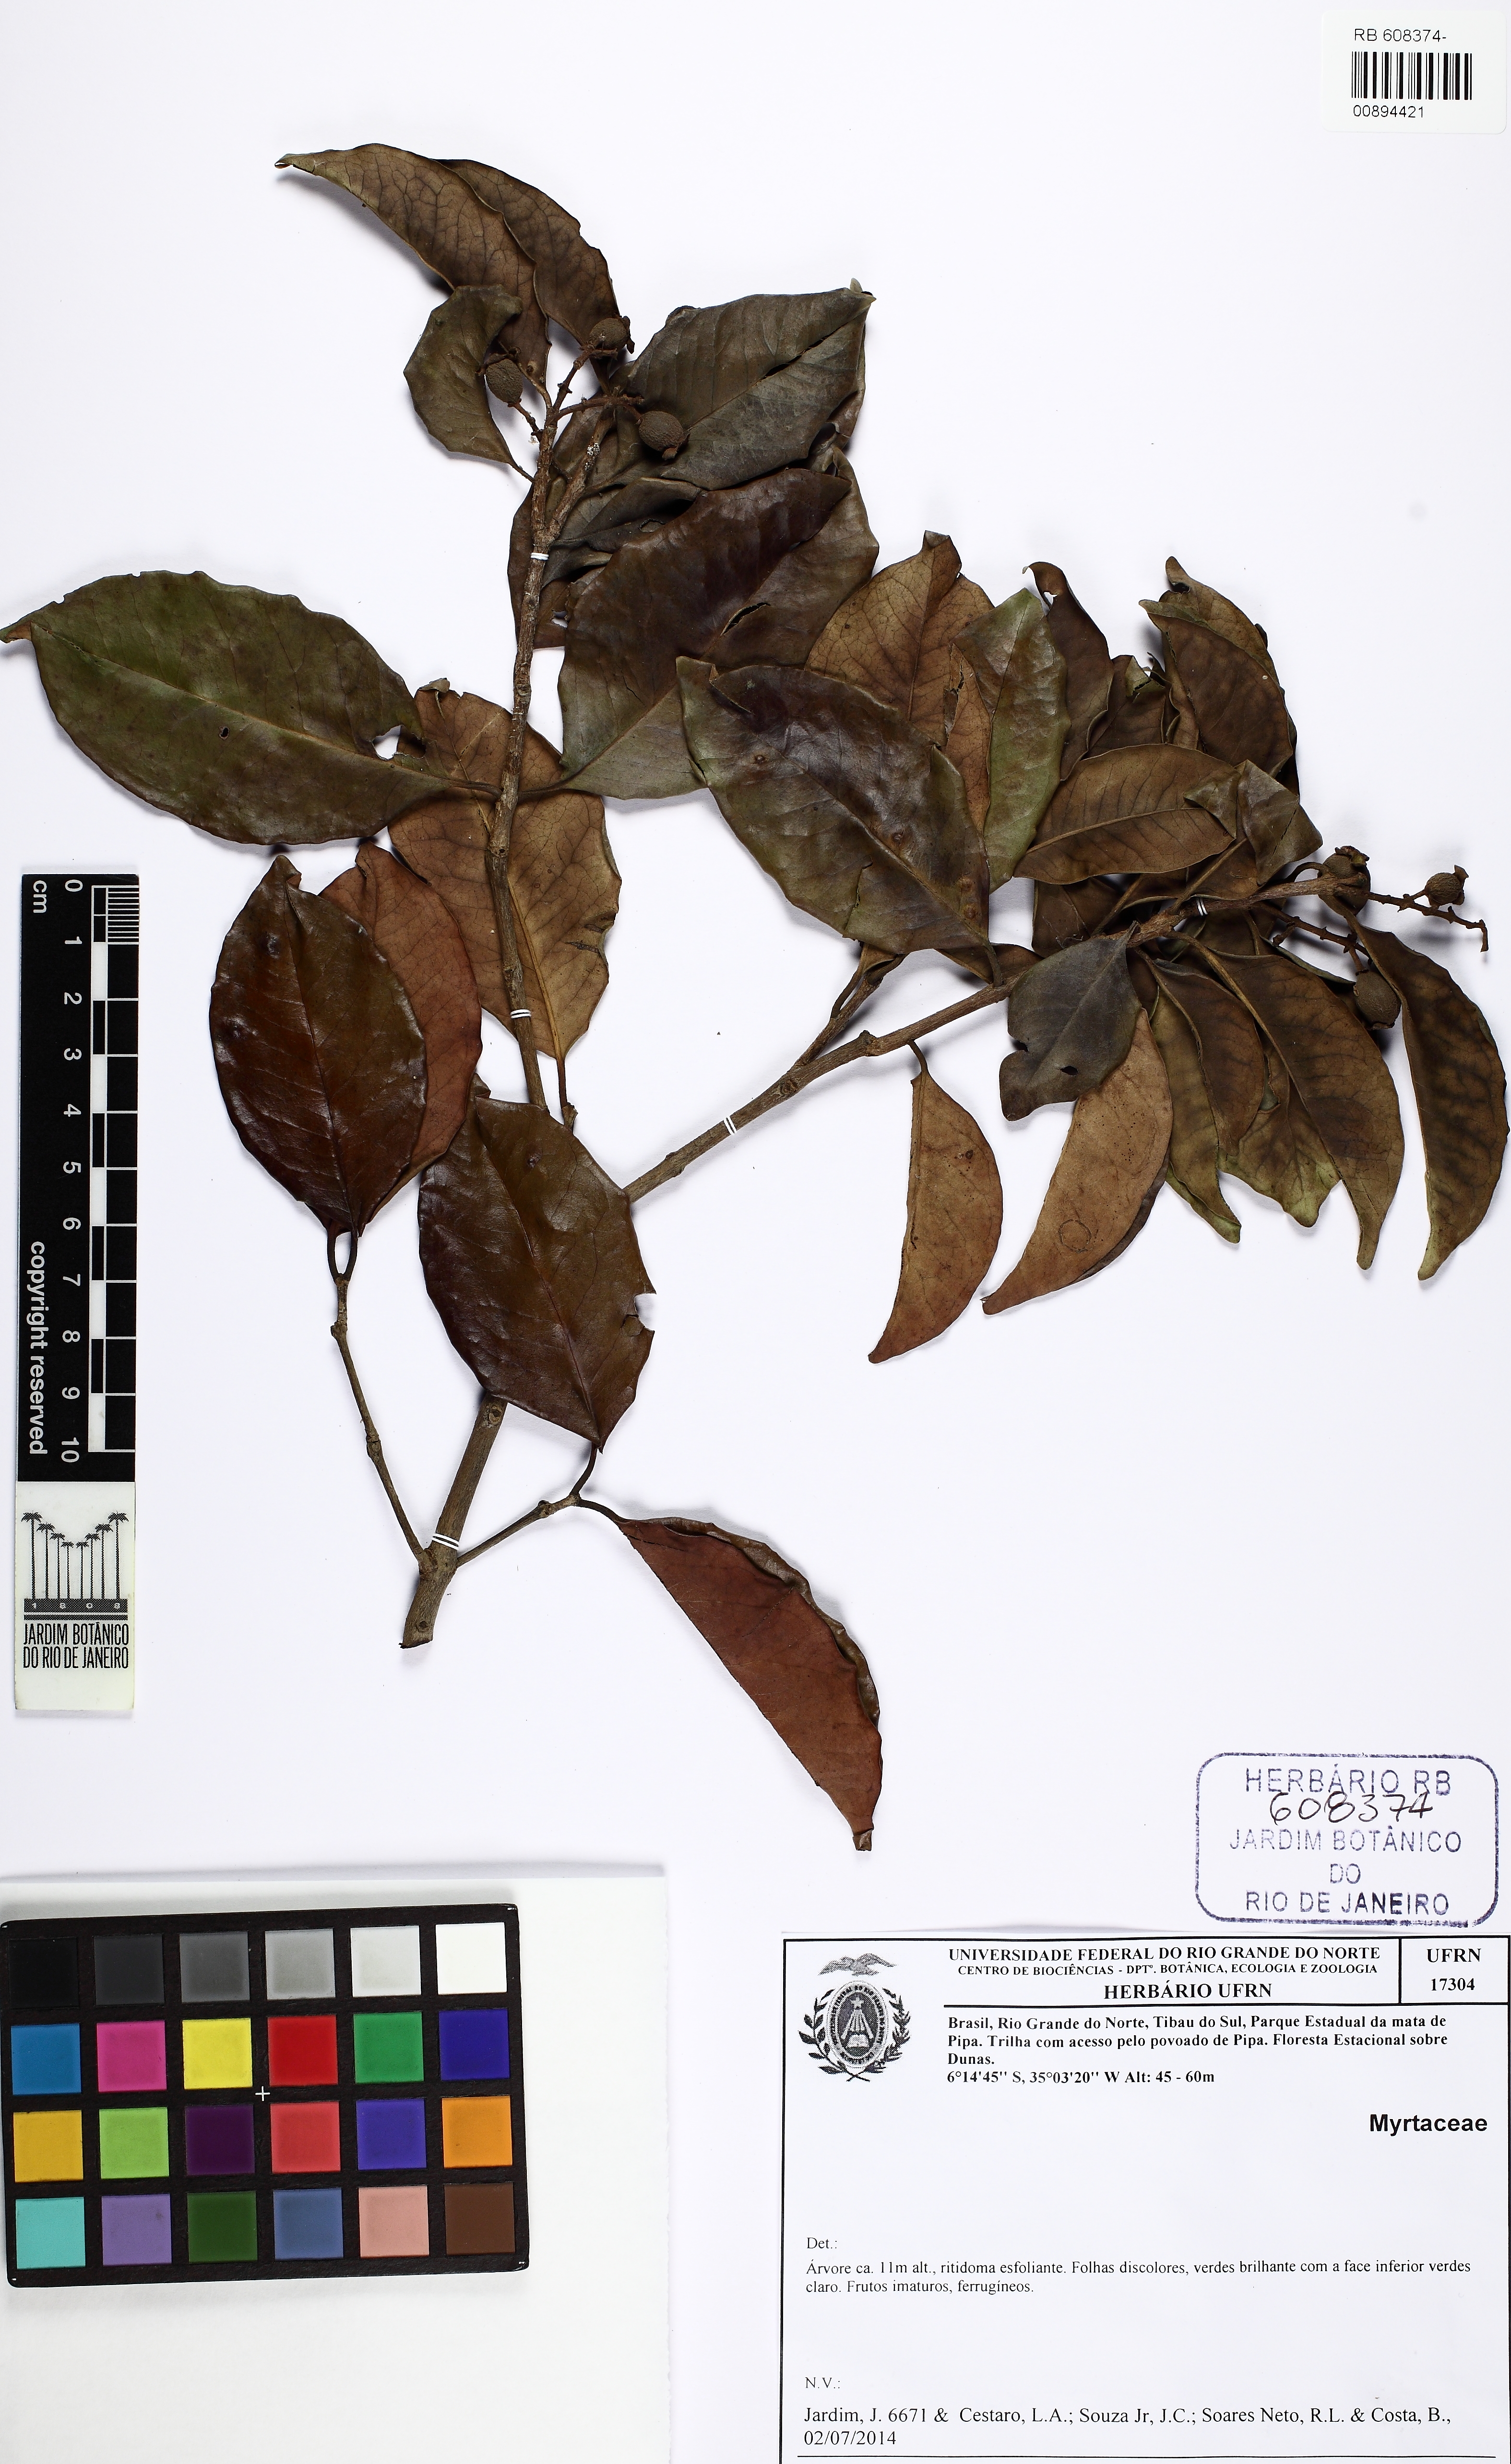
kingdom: Plantae
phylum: Tracheophyta
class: Magnoliopsida
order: Myrtales
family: Myrtaceae
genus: Eugenia
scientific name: Eugenia
